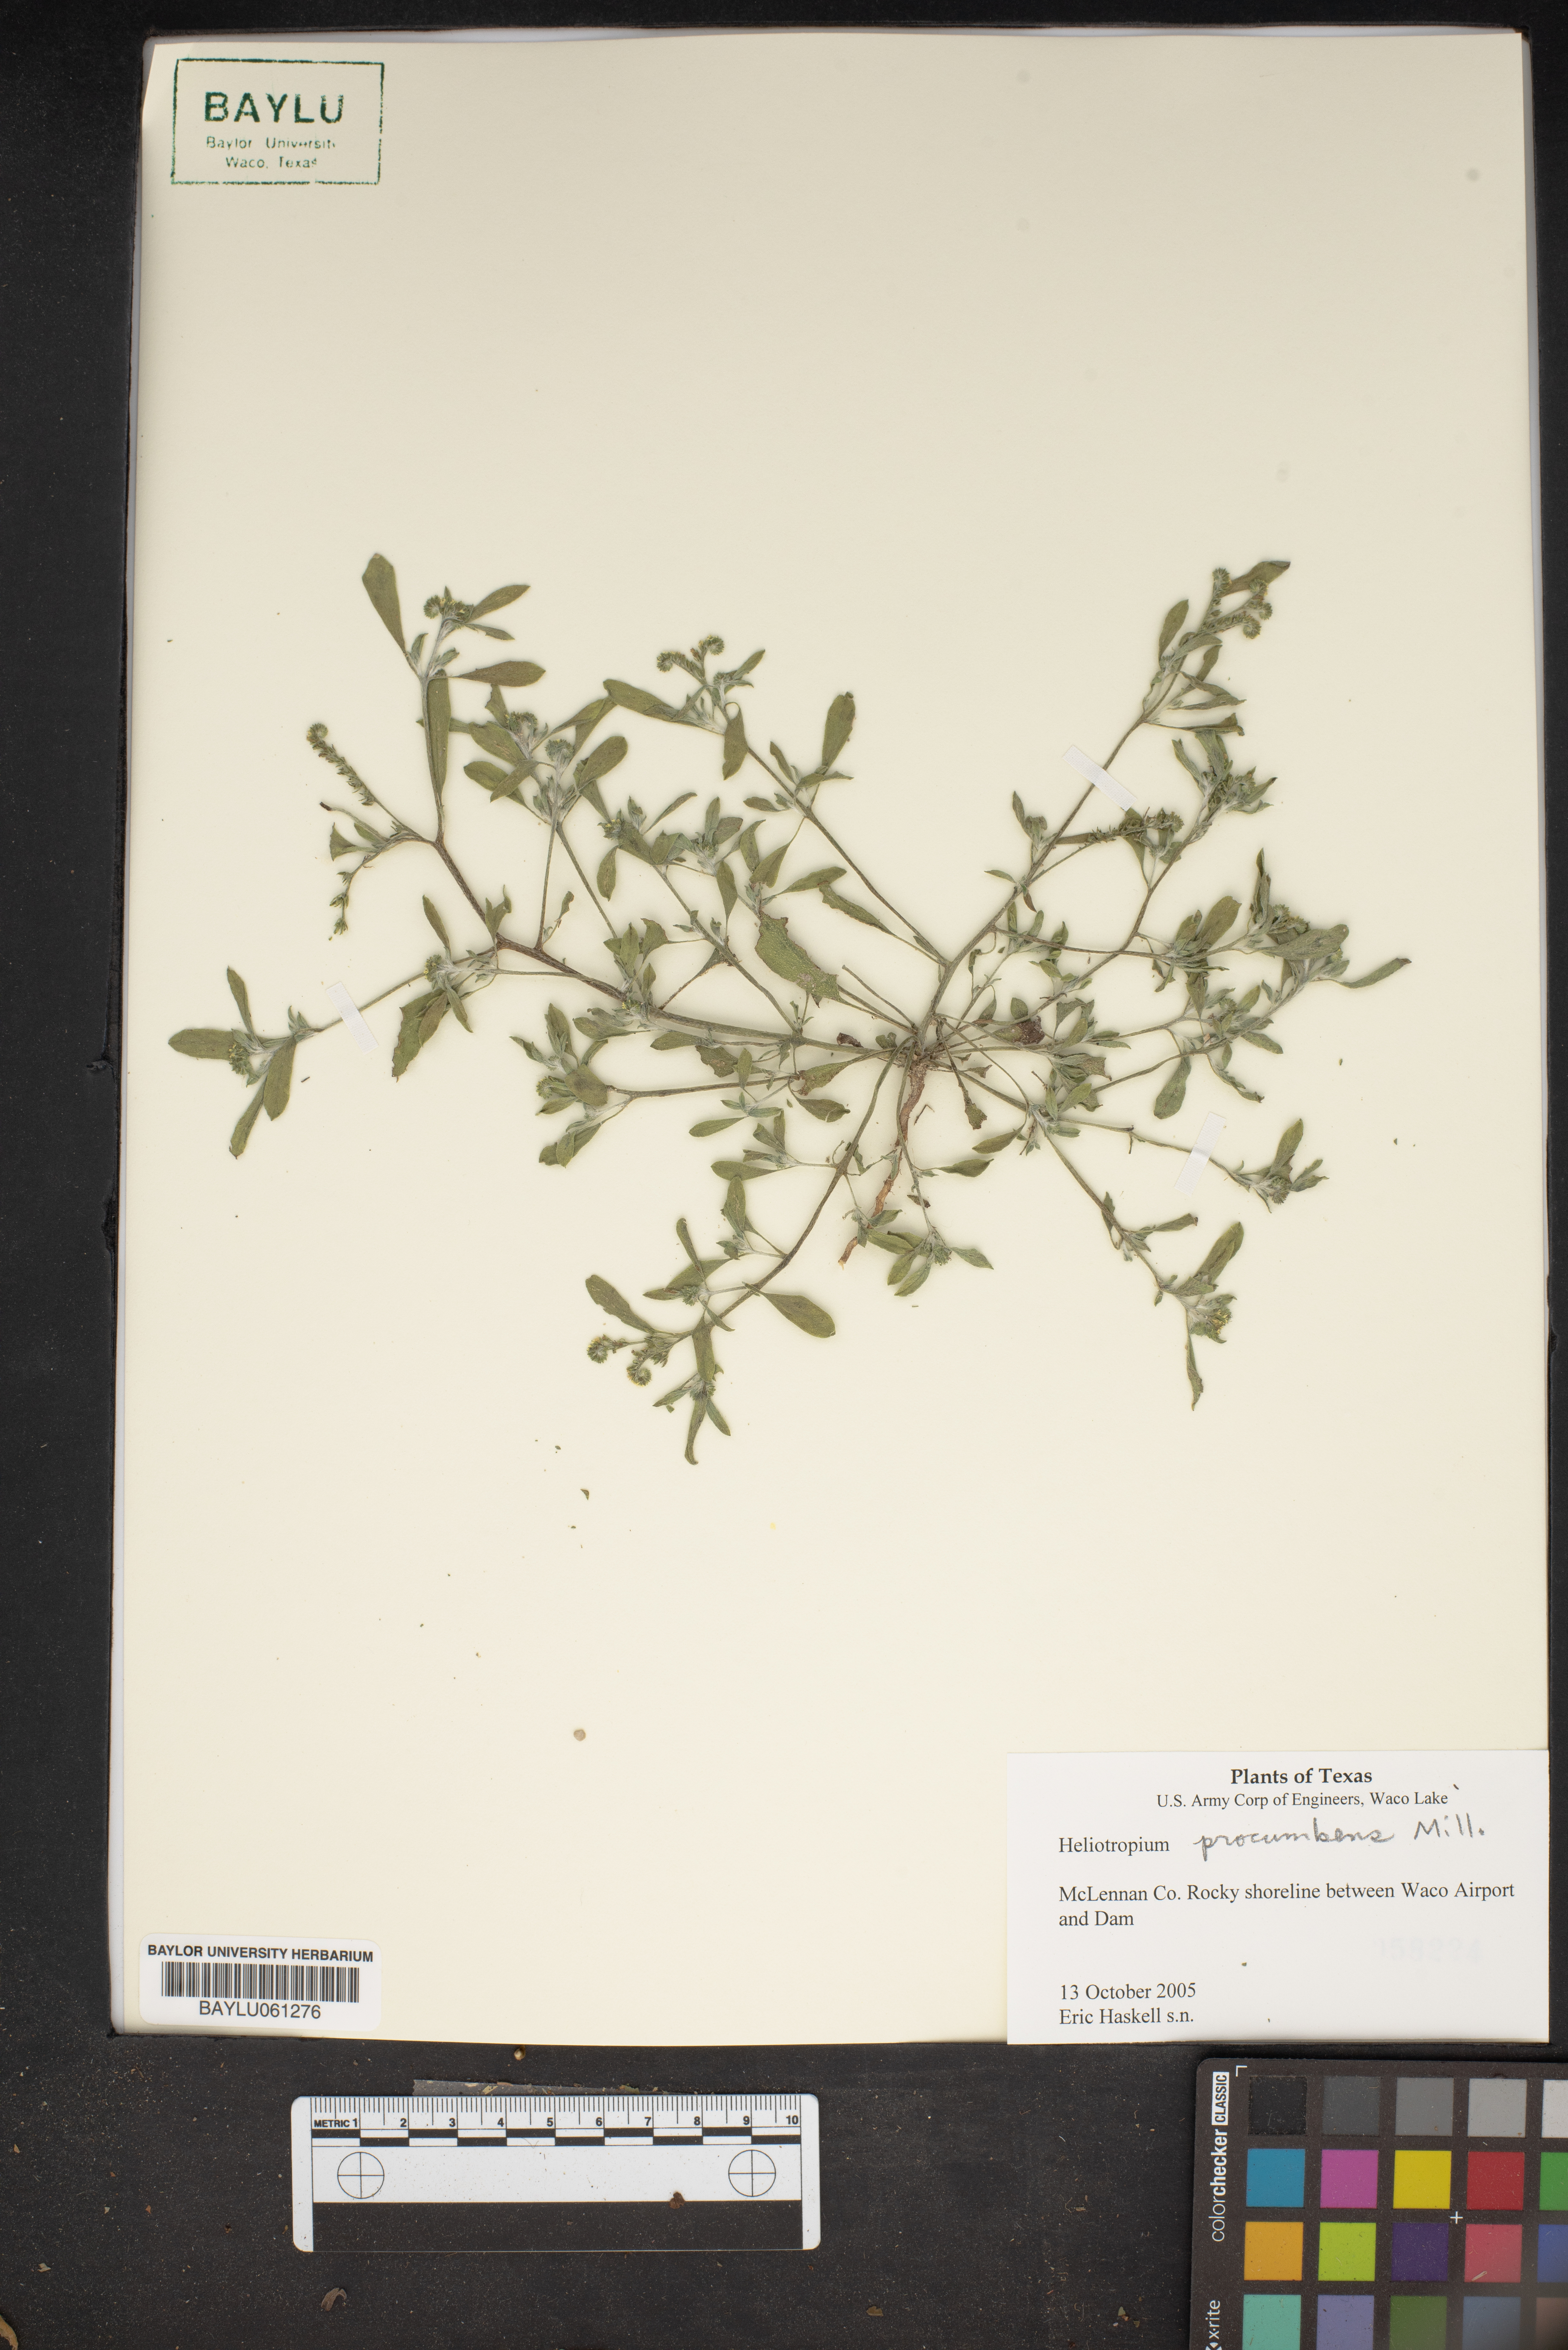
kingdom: Plantae
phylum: Tracheophyta
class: Magnoliopsida
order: Boraginales
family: Heliotropiaceae
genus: Euploca
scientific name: Euploca procumbens
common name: Fourspike heliotrope
